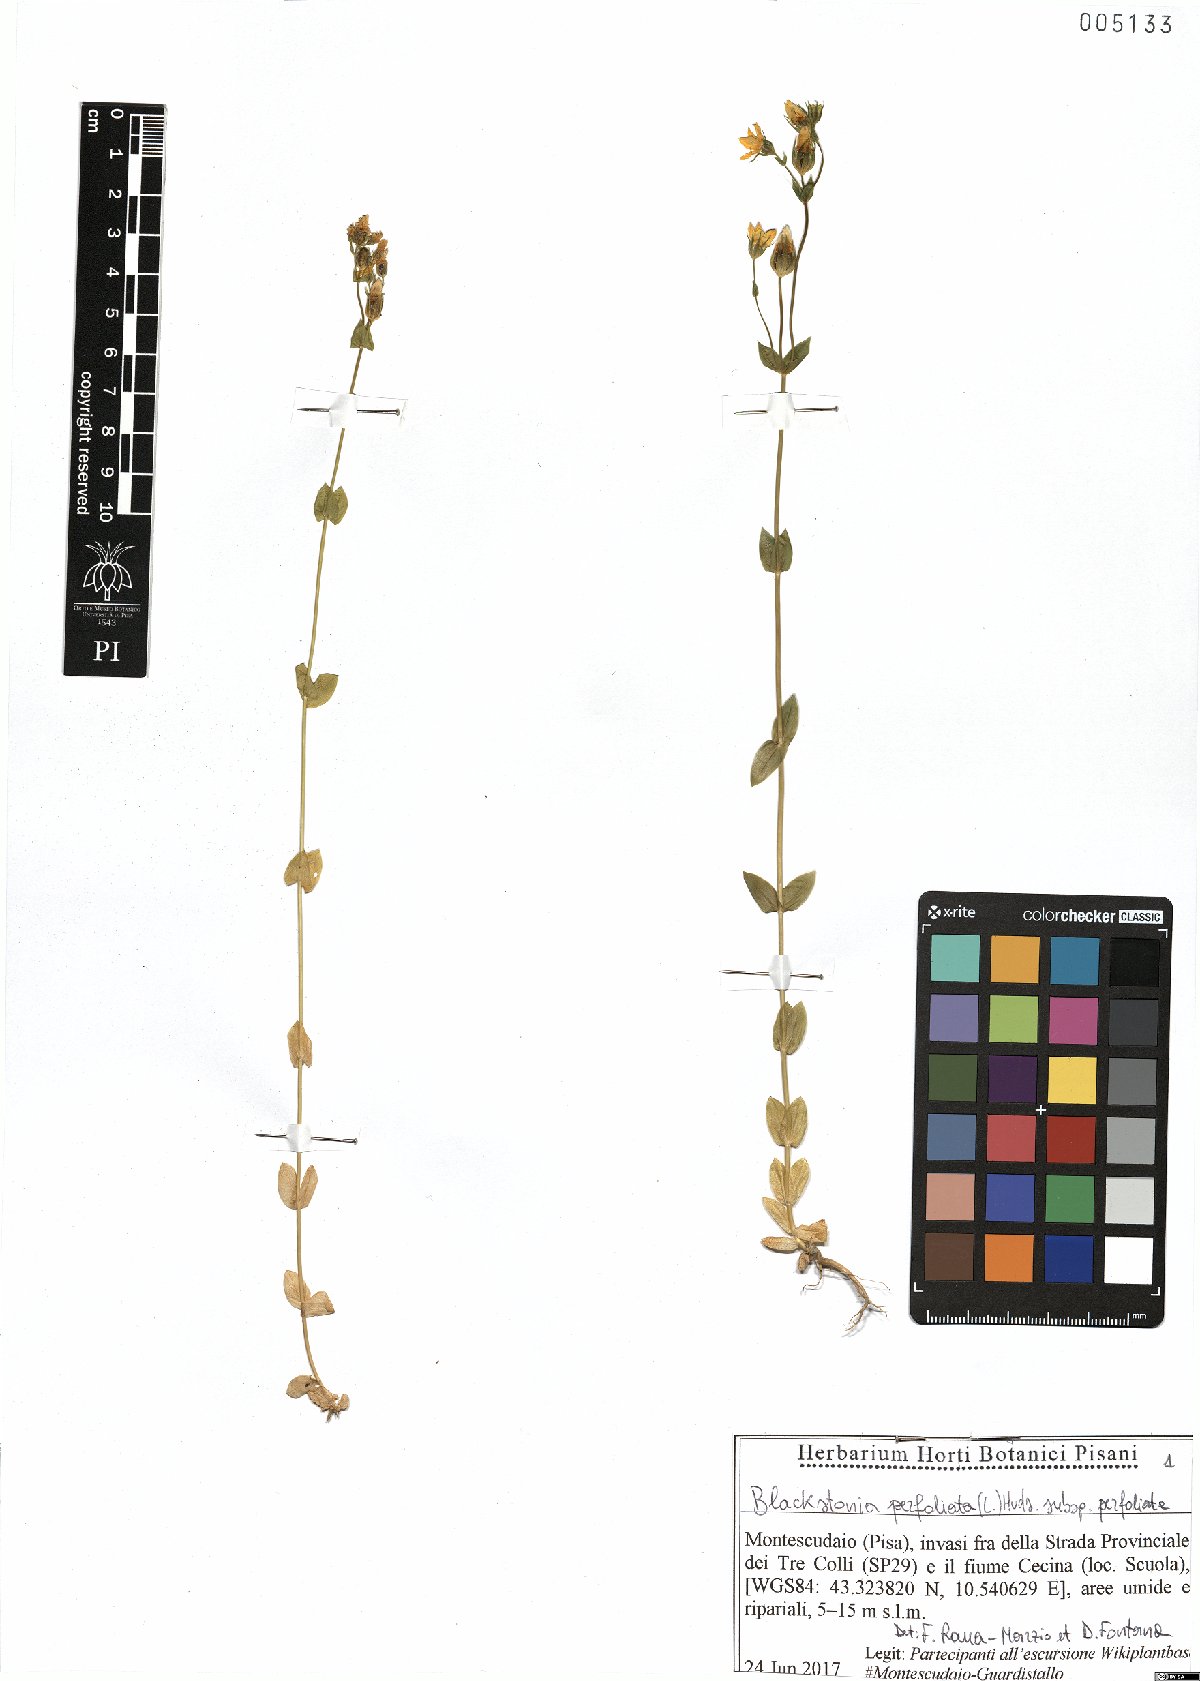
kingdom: Plantae
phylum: Tracheophyta
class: Magnoliopsida
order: Gentianales
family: Gentianaceae
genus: Blackstonia
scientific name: Blackstonia perfoliata
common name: Yellow-wort
